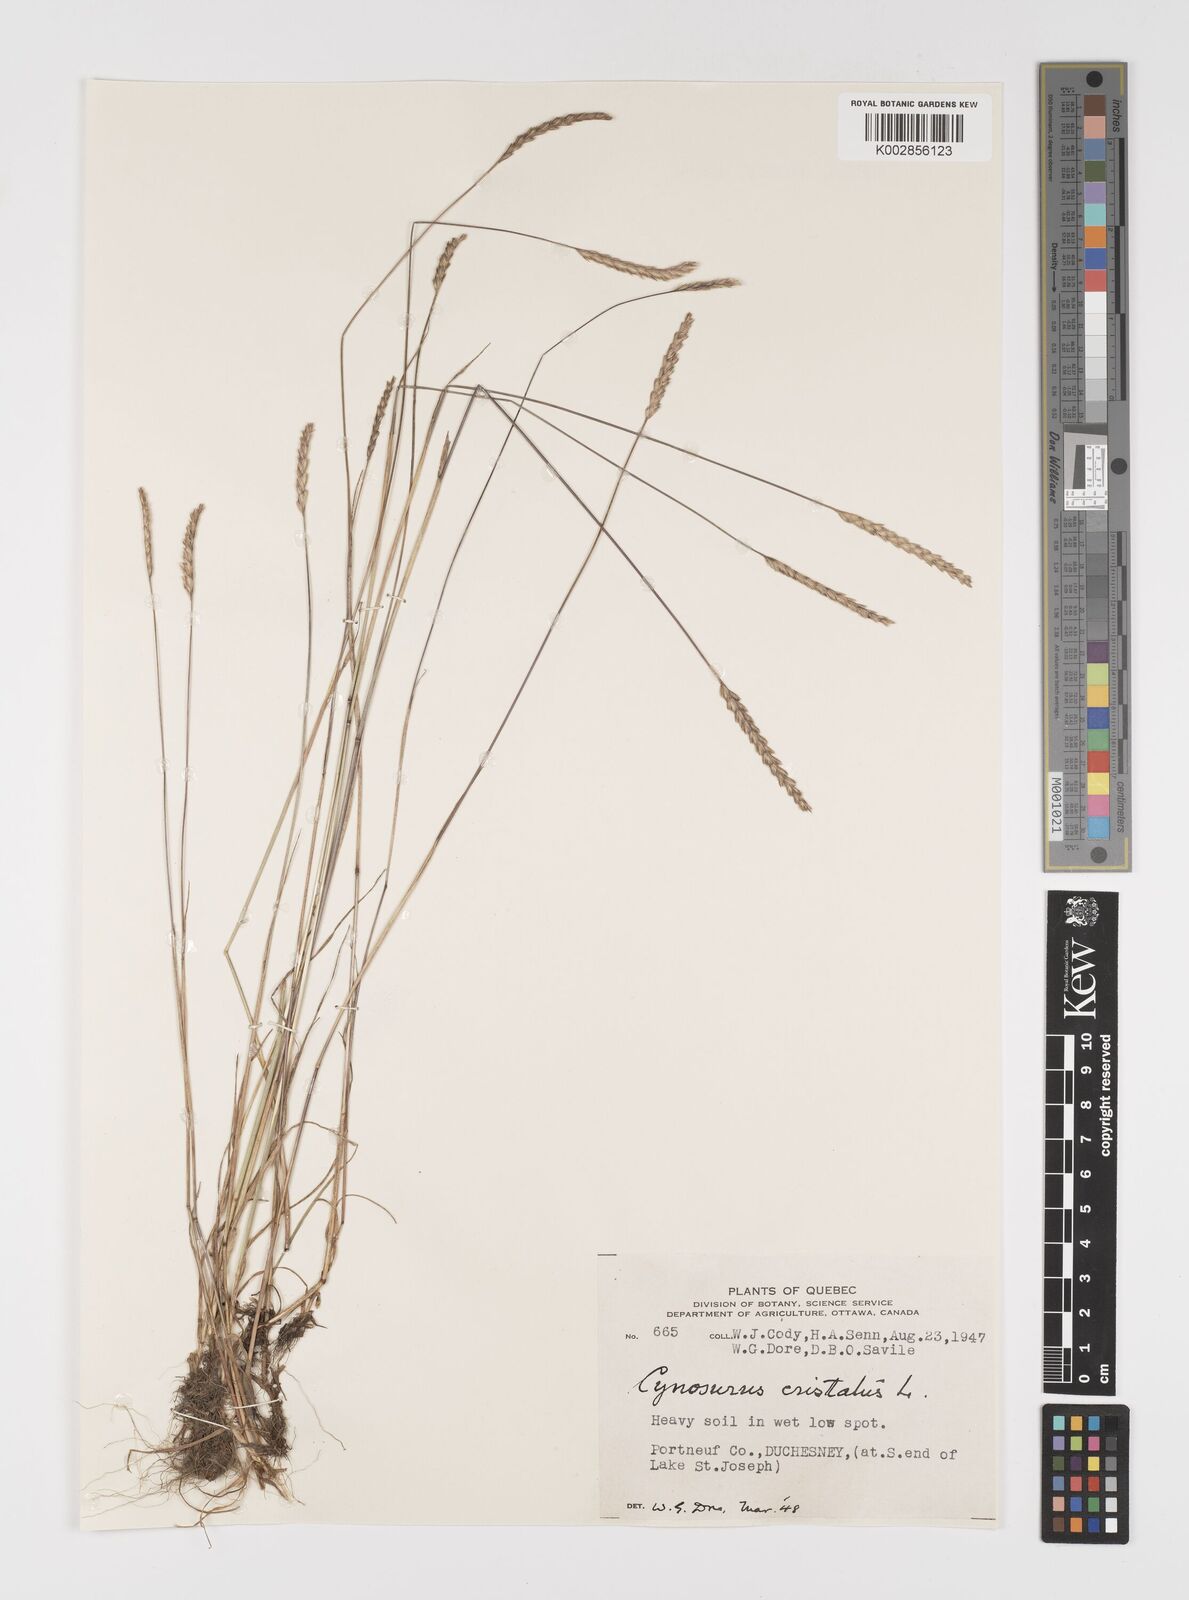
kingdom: Plantae
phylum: Tracheophyta
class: Liliopsida
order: Poales
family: Poaceae
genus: Cynosurus
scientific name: Cynosurus cristatus
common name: Crested dog's-tail
